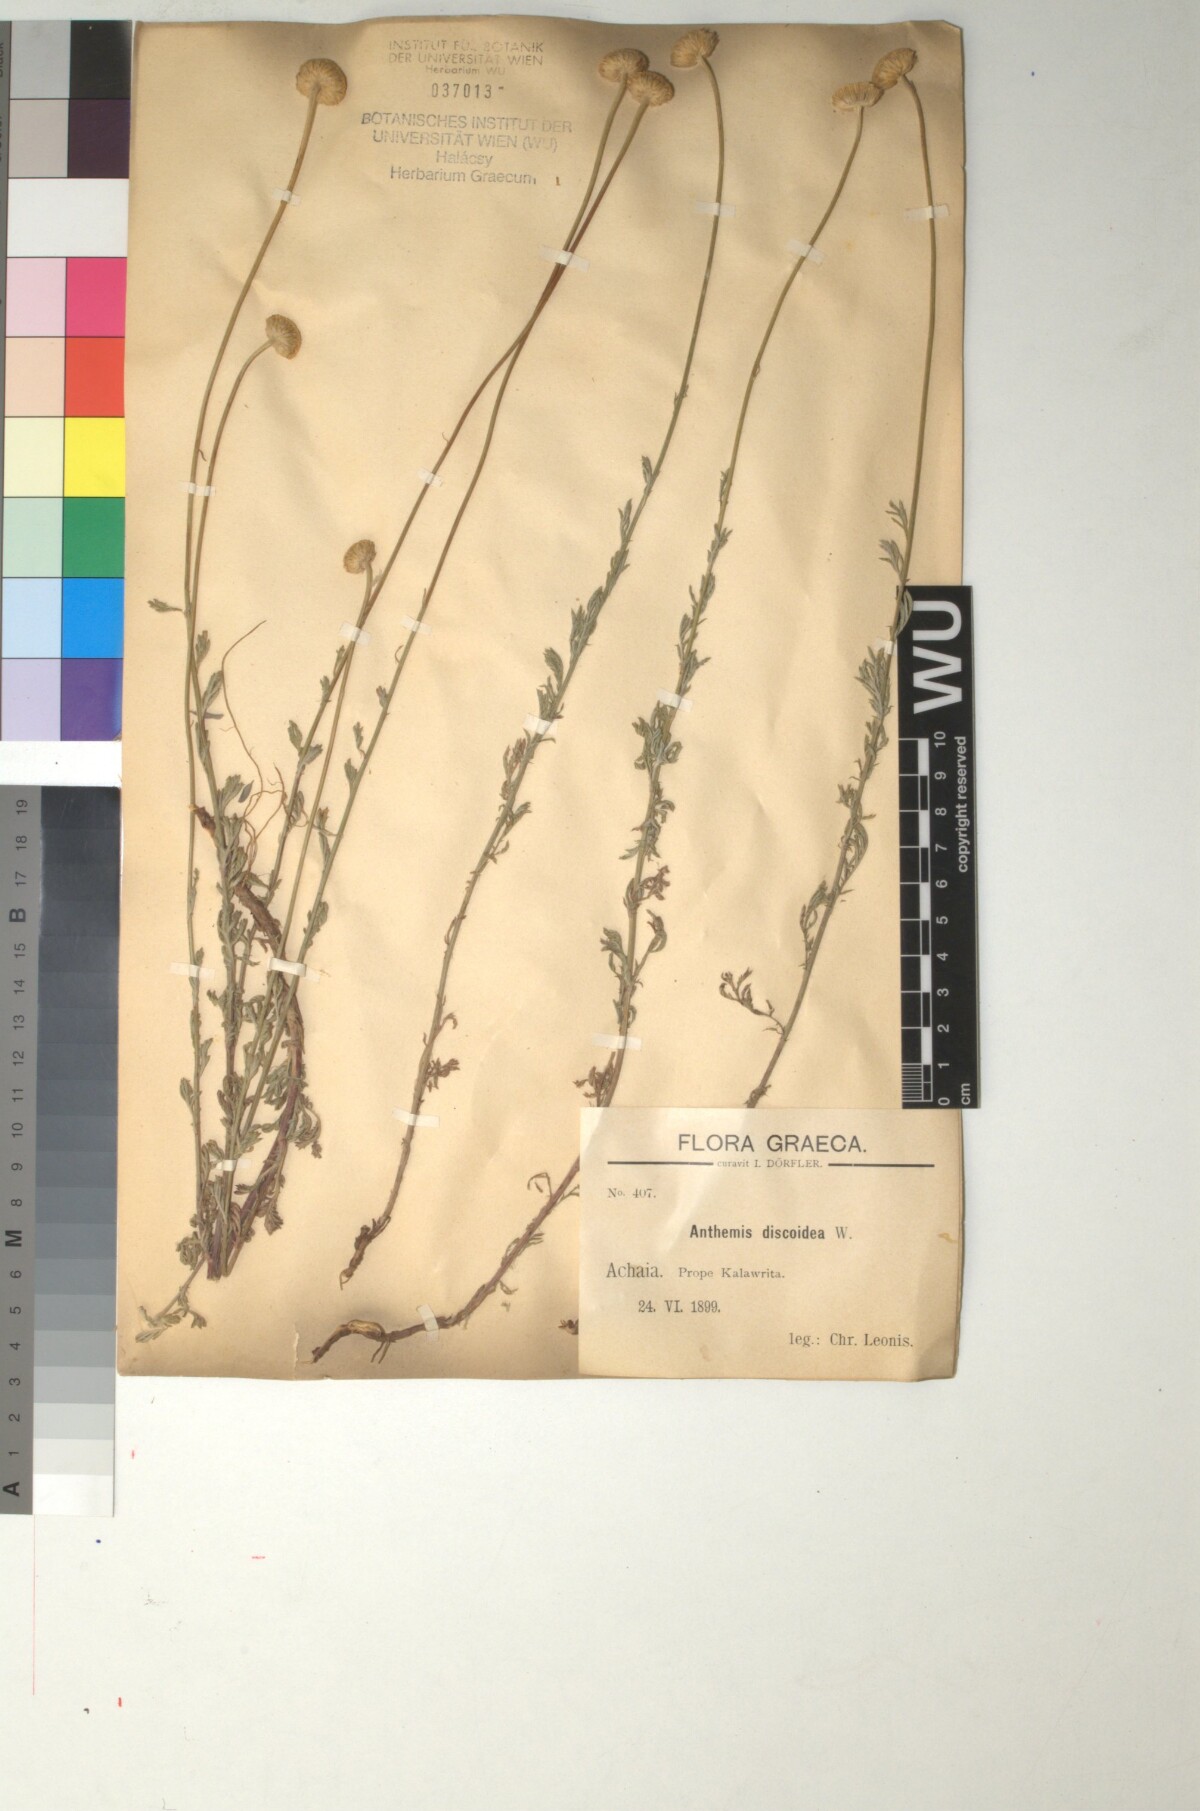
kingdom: Plantae
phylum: Tracheophyta
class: Magnoliopsida
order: Asterales
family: Asteraceae
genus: Cota
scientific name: Cota tinctoria
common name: Golden chamomile
